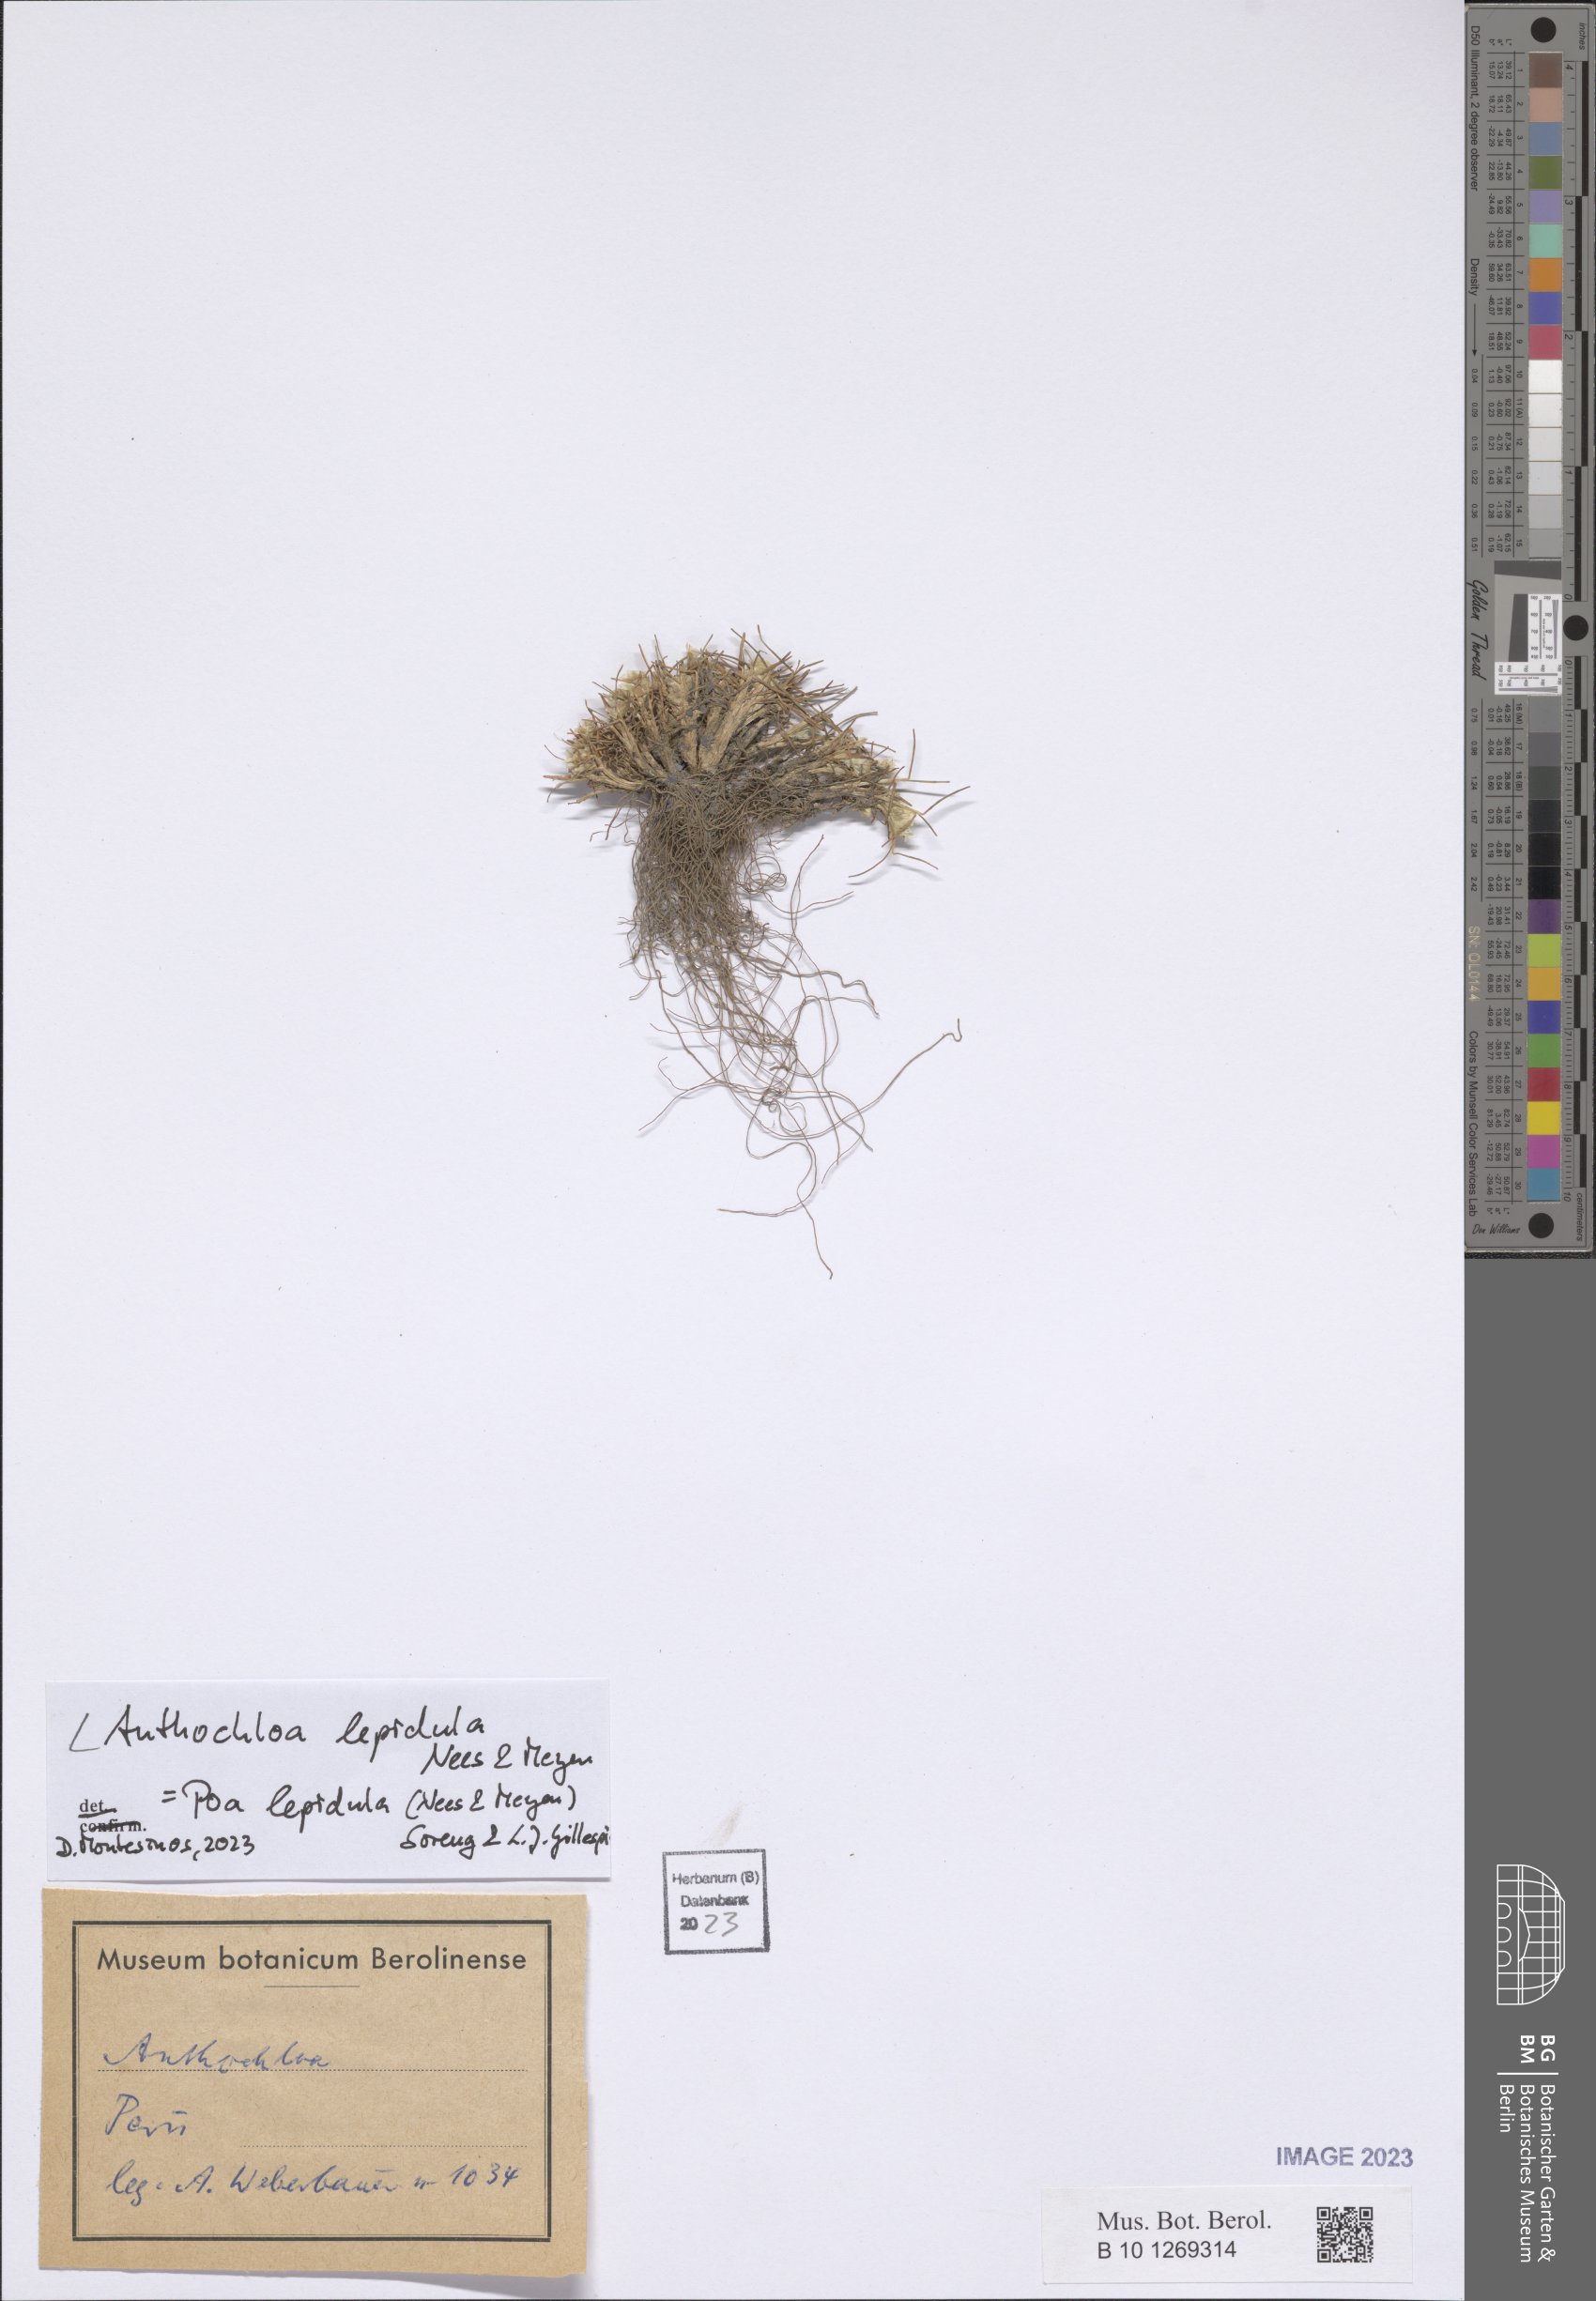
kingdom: Plantae
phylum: Tracheophyta
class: Liliopsida
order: Poales
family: Poaceae
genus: Poa
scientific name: Poa lepidula
